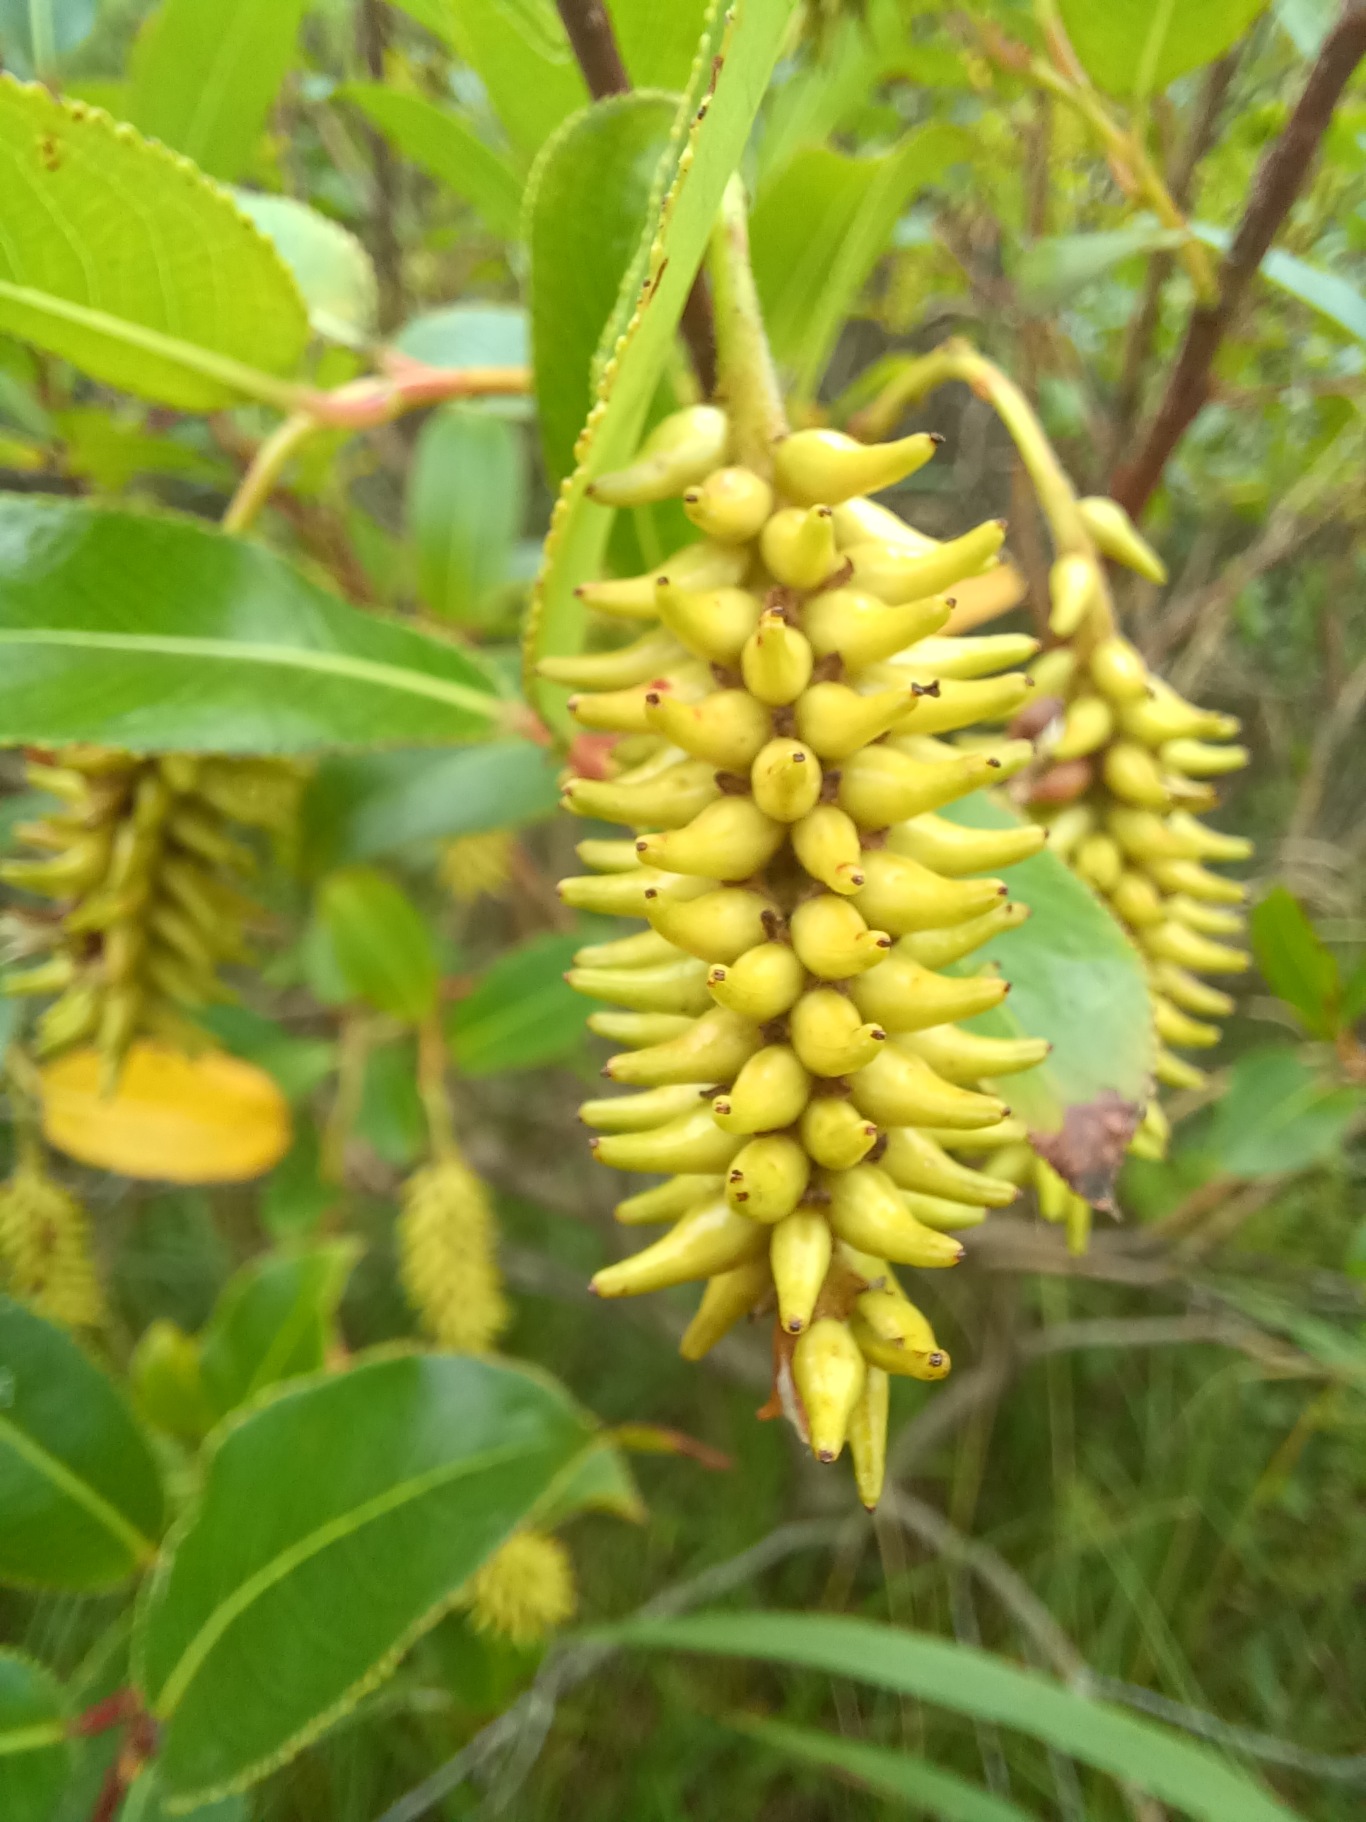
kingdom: Plantae
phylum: Tracheophyta
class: Magnoliopsida
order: Malpighiales
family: Salicaceae
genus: Salix
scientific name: Salix pentandra
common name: Femhannet pil
